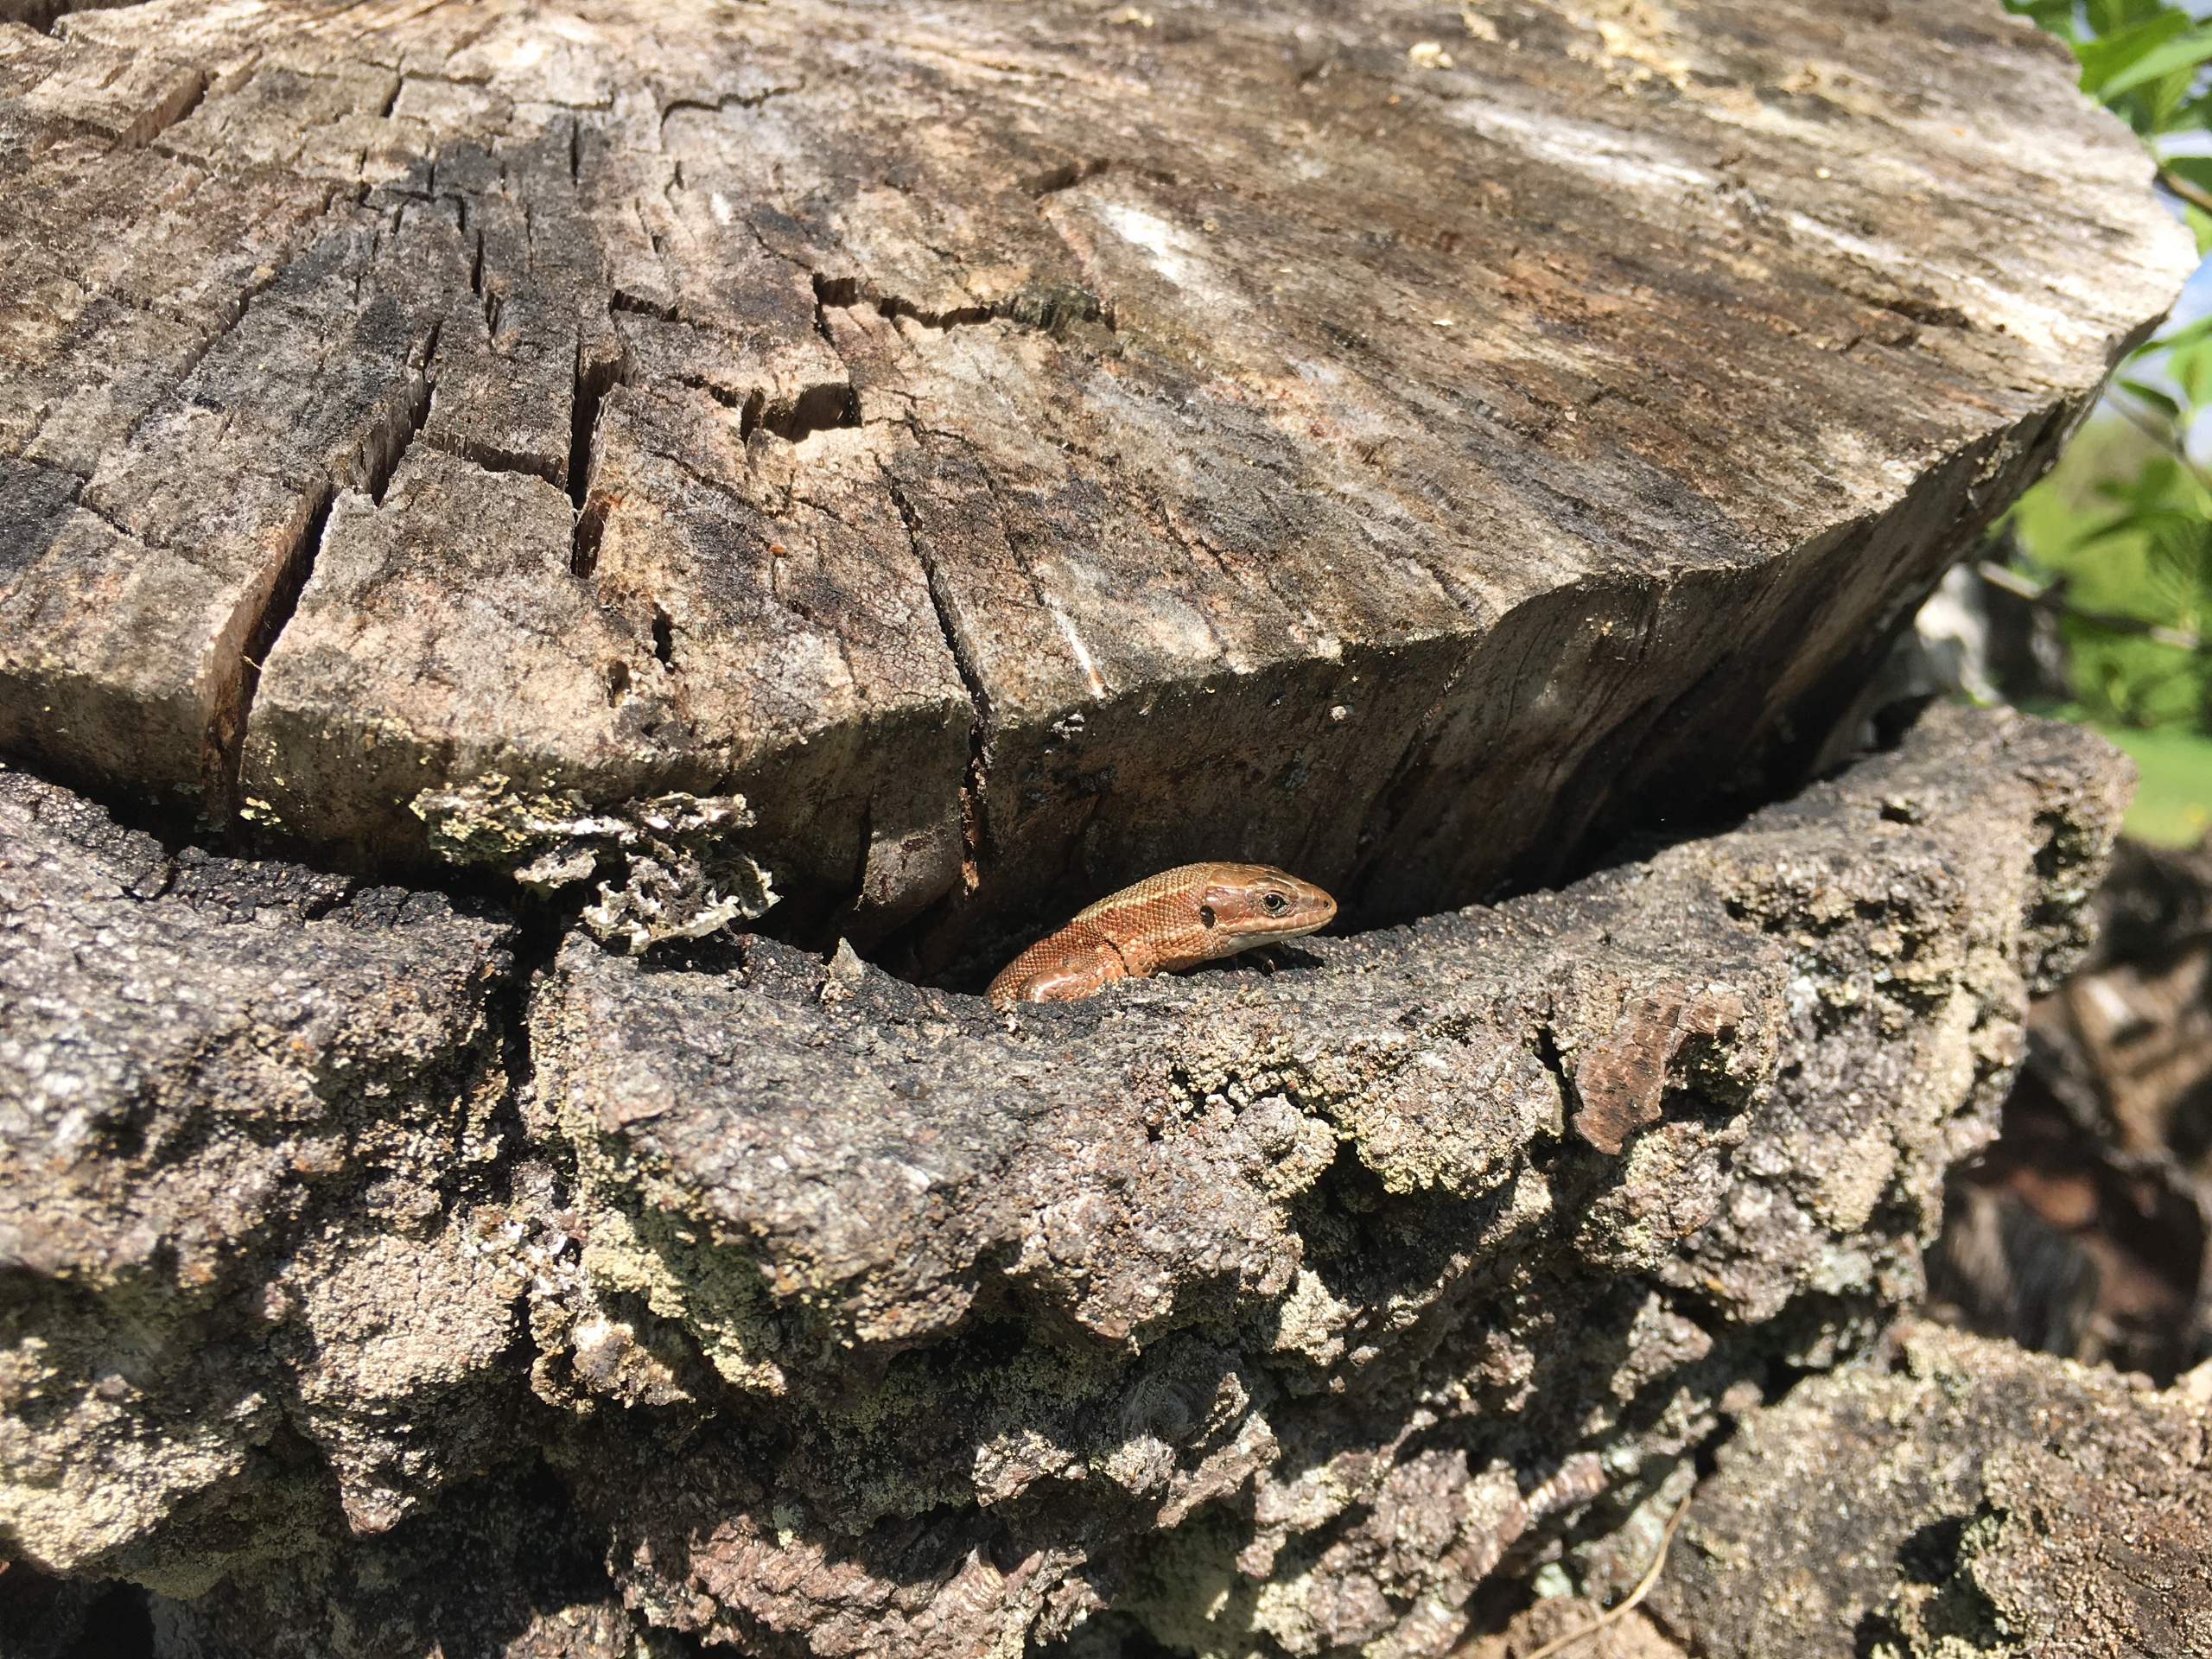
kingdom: Animalia
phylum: Chordata
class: Squamata
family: Lacertidae
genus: Zootoca
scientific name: Zootoca vivipara
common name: Skovfirben
